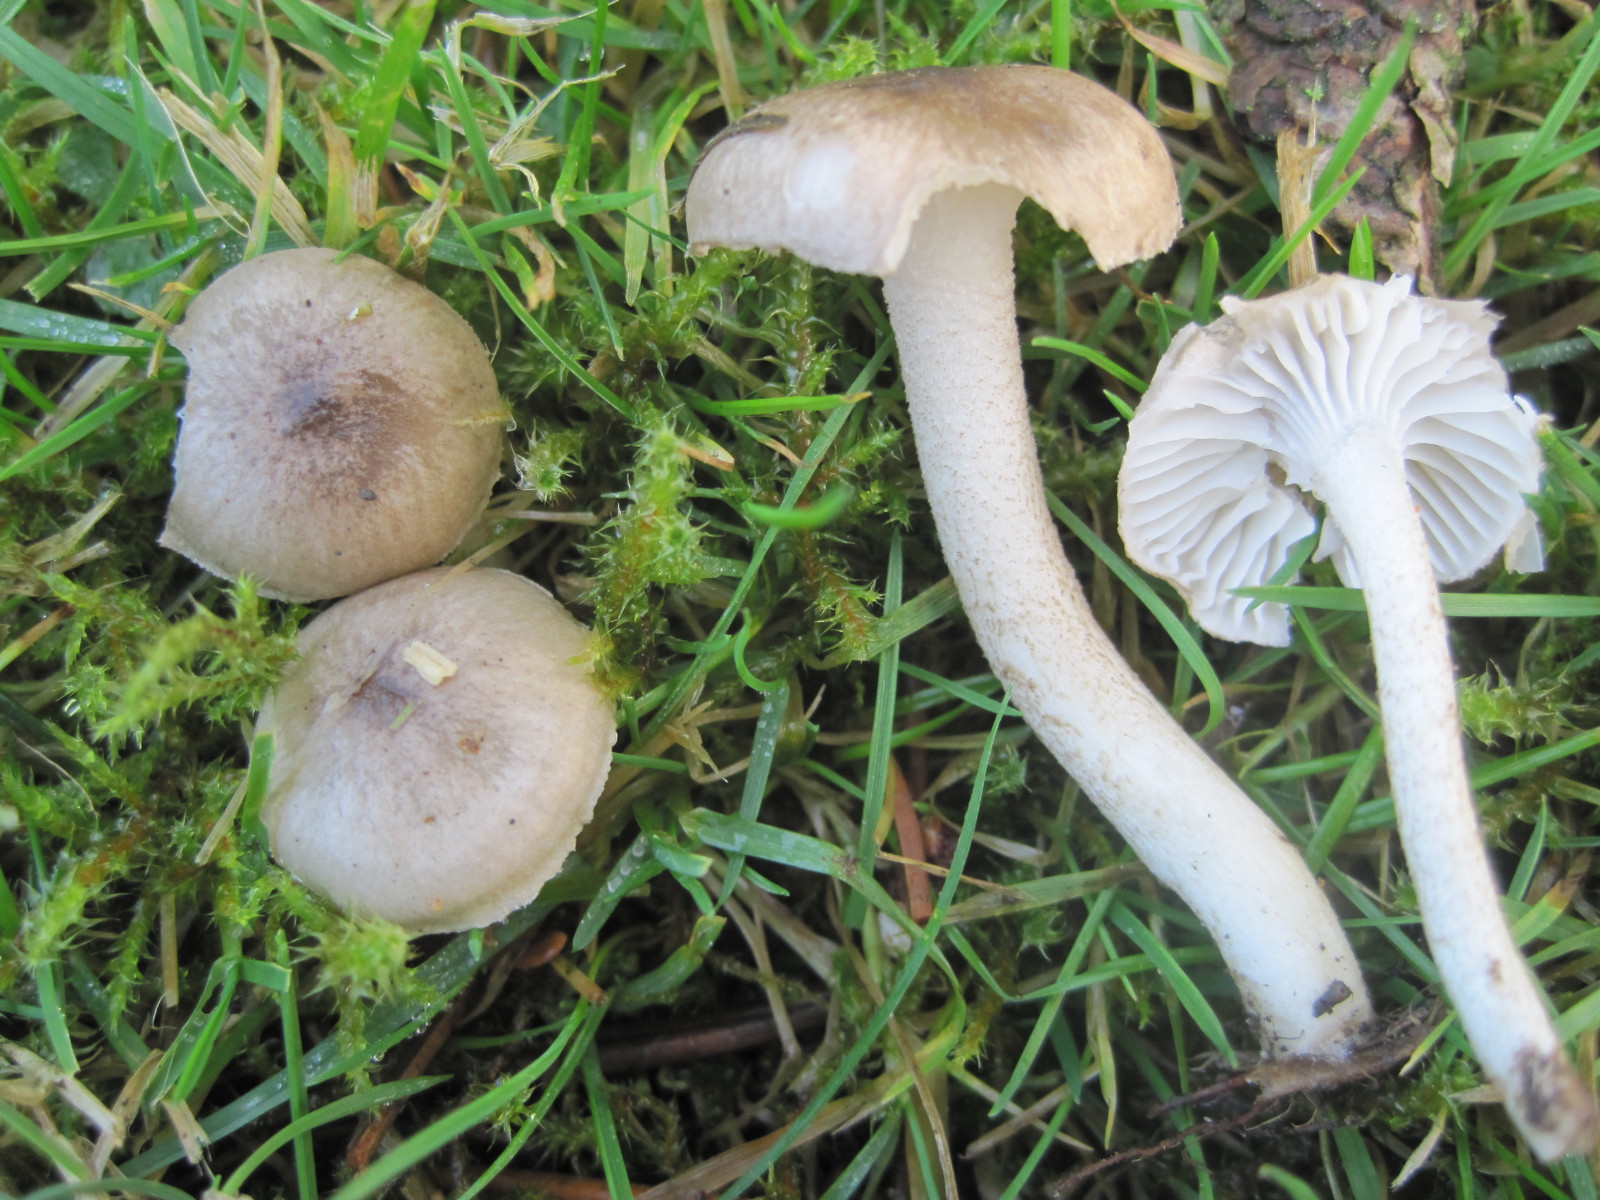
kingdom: Fungi
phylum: Basidiomycota
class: Agaricomycetes
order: Agaricales
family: Hygrophoraceae
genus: Hygrophorus
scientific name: Hygrophorus pustulatus
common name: mørkprikket sneglehat
